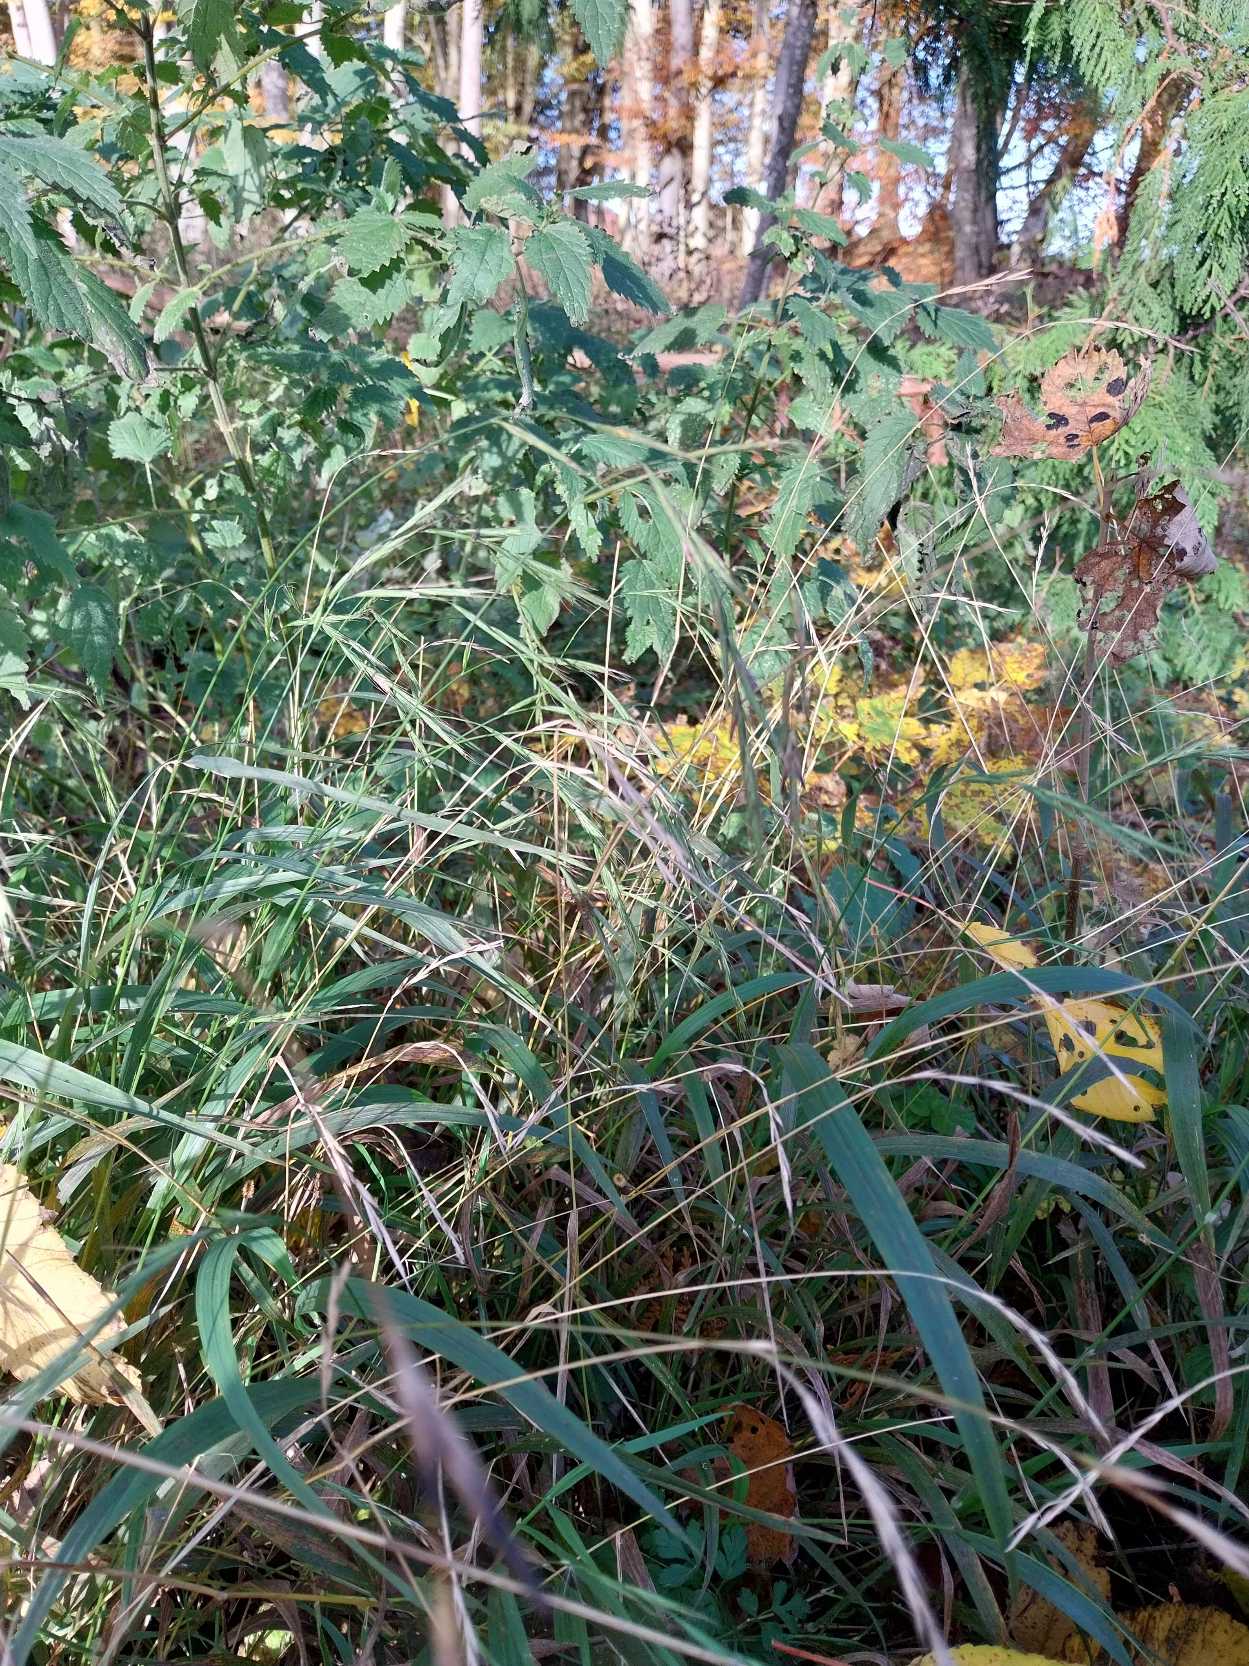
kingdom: Plantae
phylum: Tracheophyta
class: Liliopsida
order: Poales
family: Poaceae
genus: Brachypodium
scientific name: Brachypodium sylvaticum
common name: Skov-stilkaks
